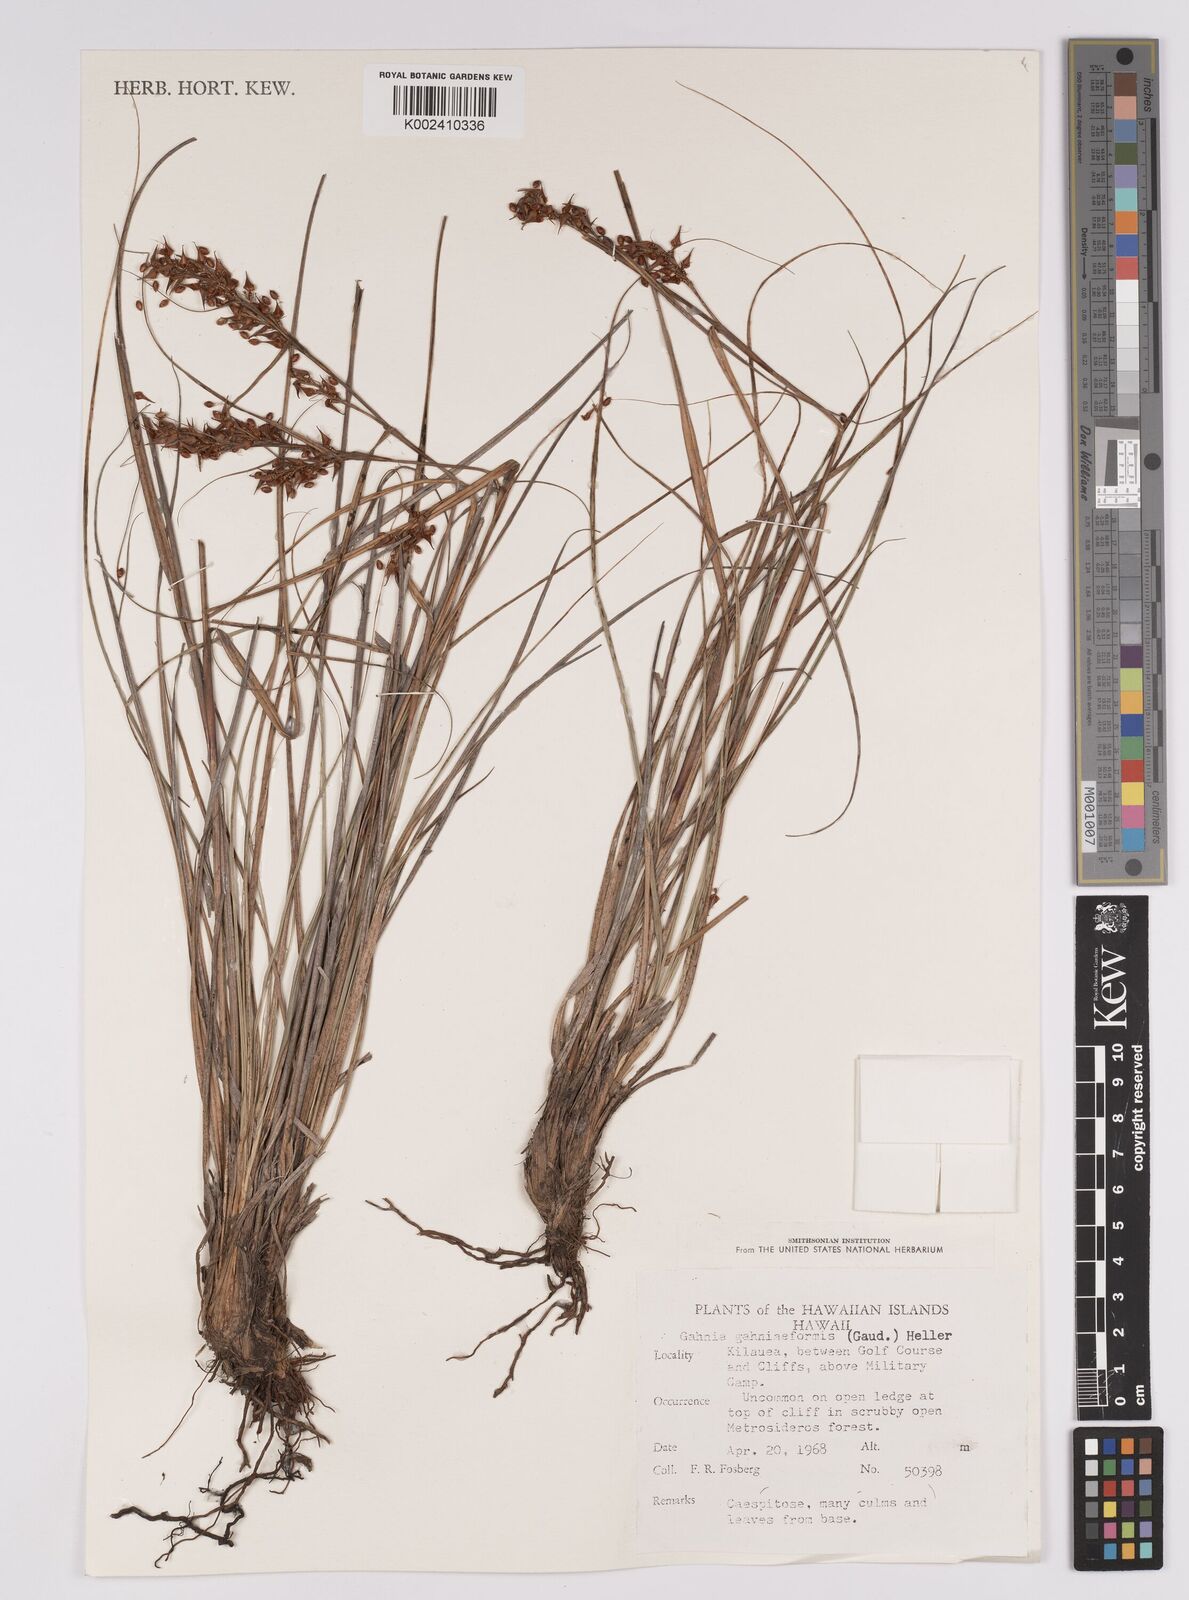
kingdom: Plantae
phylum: Tracheophyta
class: Liliopsida
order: Poales
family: Cyperaceae
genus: Morelotia
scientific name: Morelotia gahniiformis
